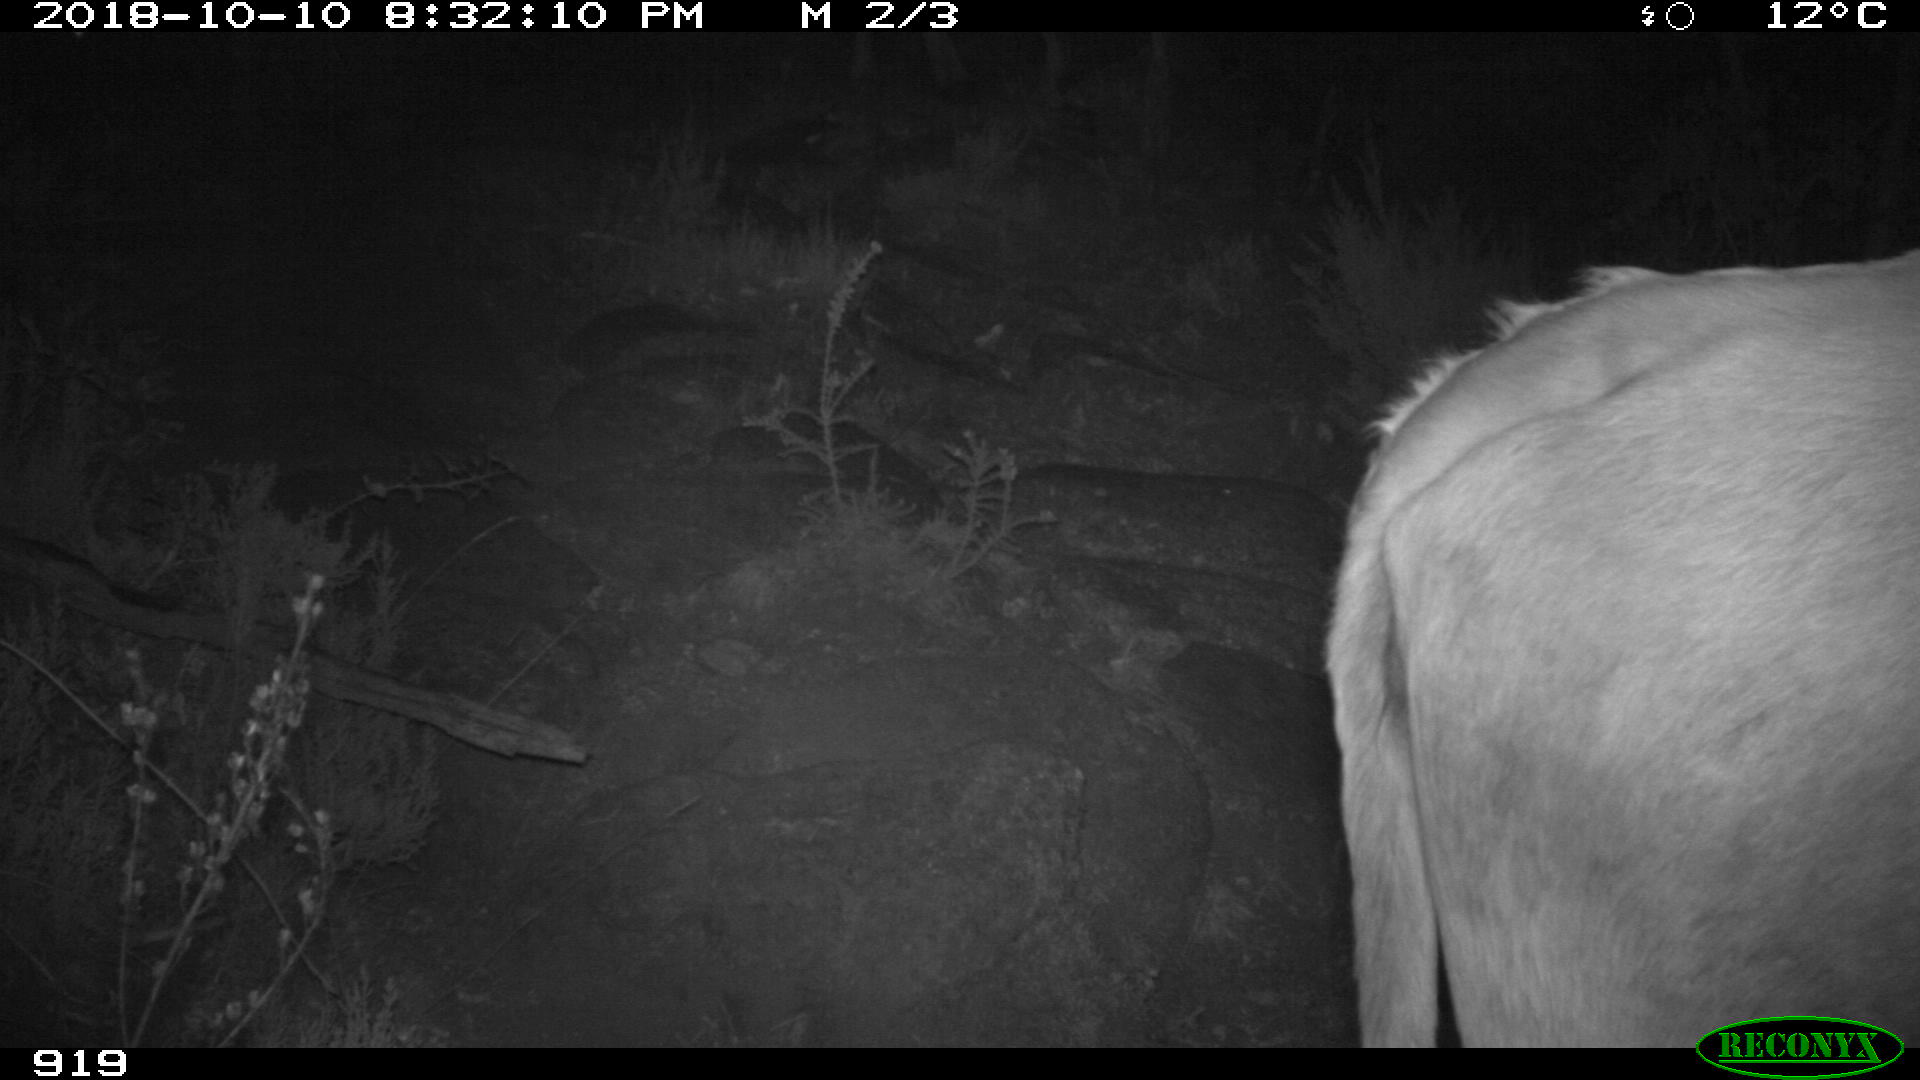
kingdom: Animalia
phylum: Chordata
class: Mammalia
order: Artiodactyla
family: Bovidae
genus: Bos
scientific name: Bos taurus
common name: Domesticated cattle
